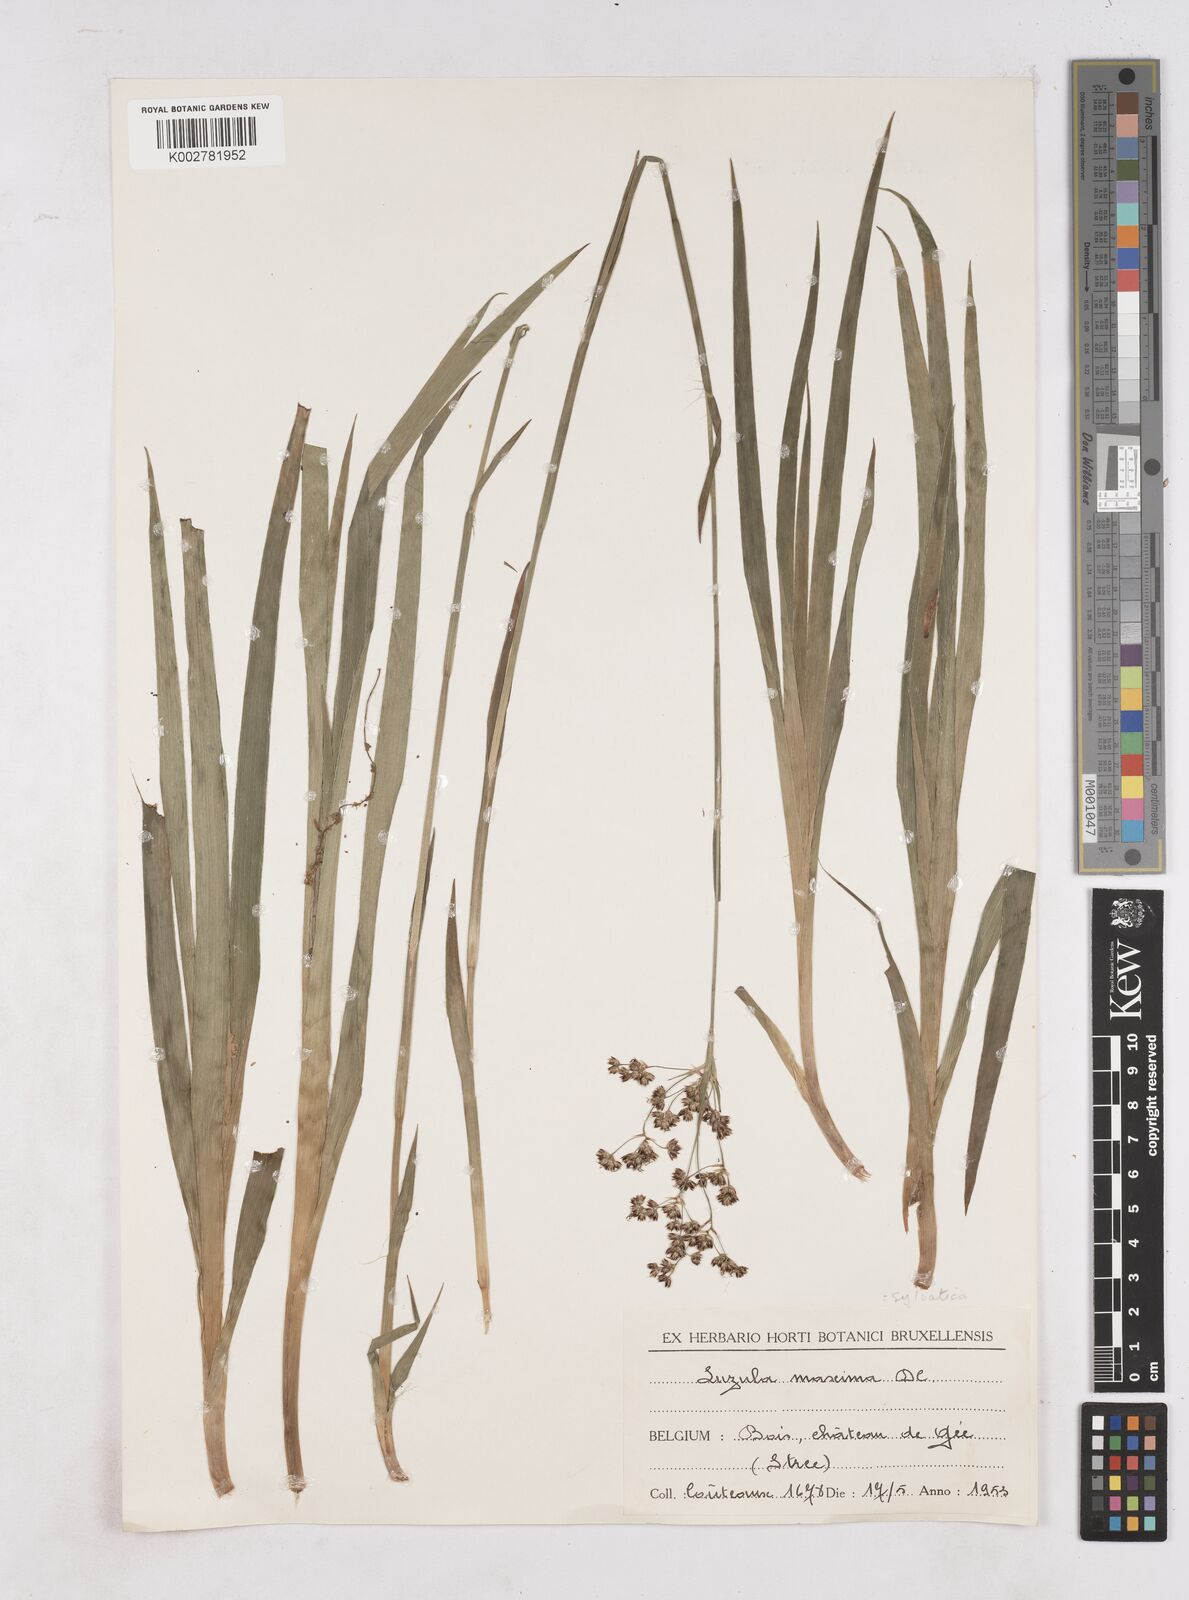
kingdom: Plantae
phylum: Tracheophyta
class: Liliopsida
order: Poales
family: Juncaceae
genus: Luzula
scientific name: Luzula sylvatica
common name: Great wood-rush
